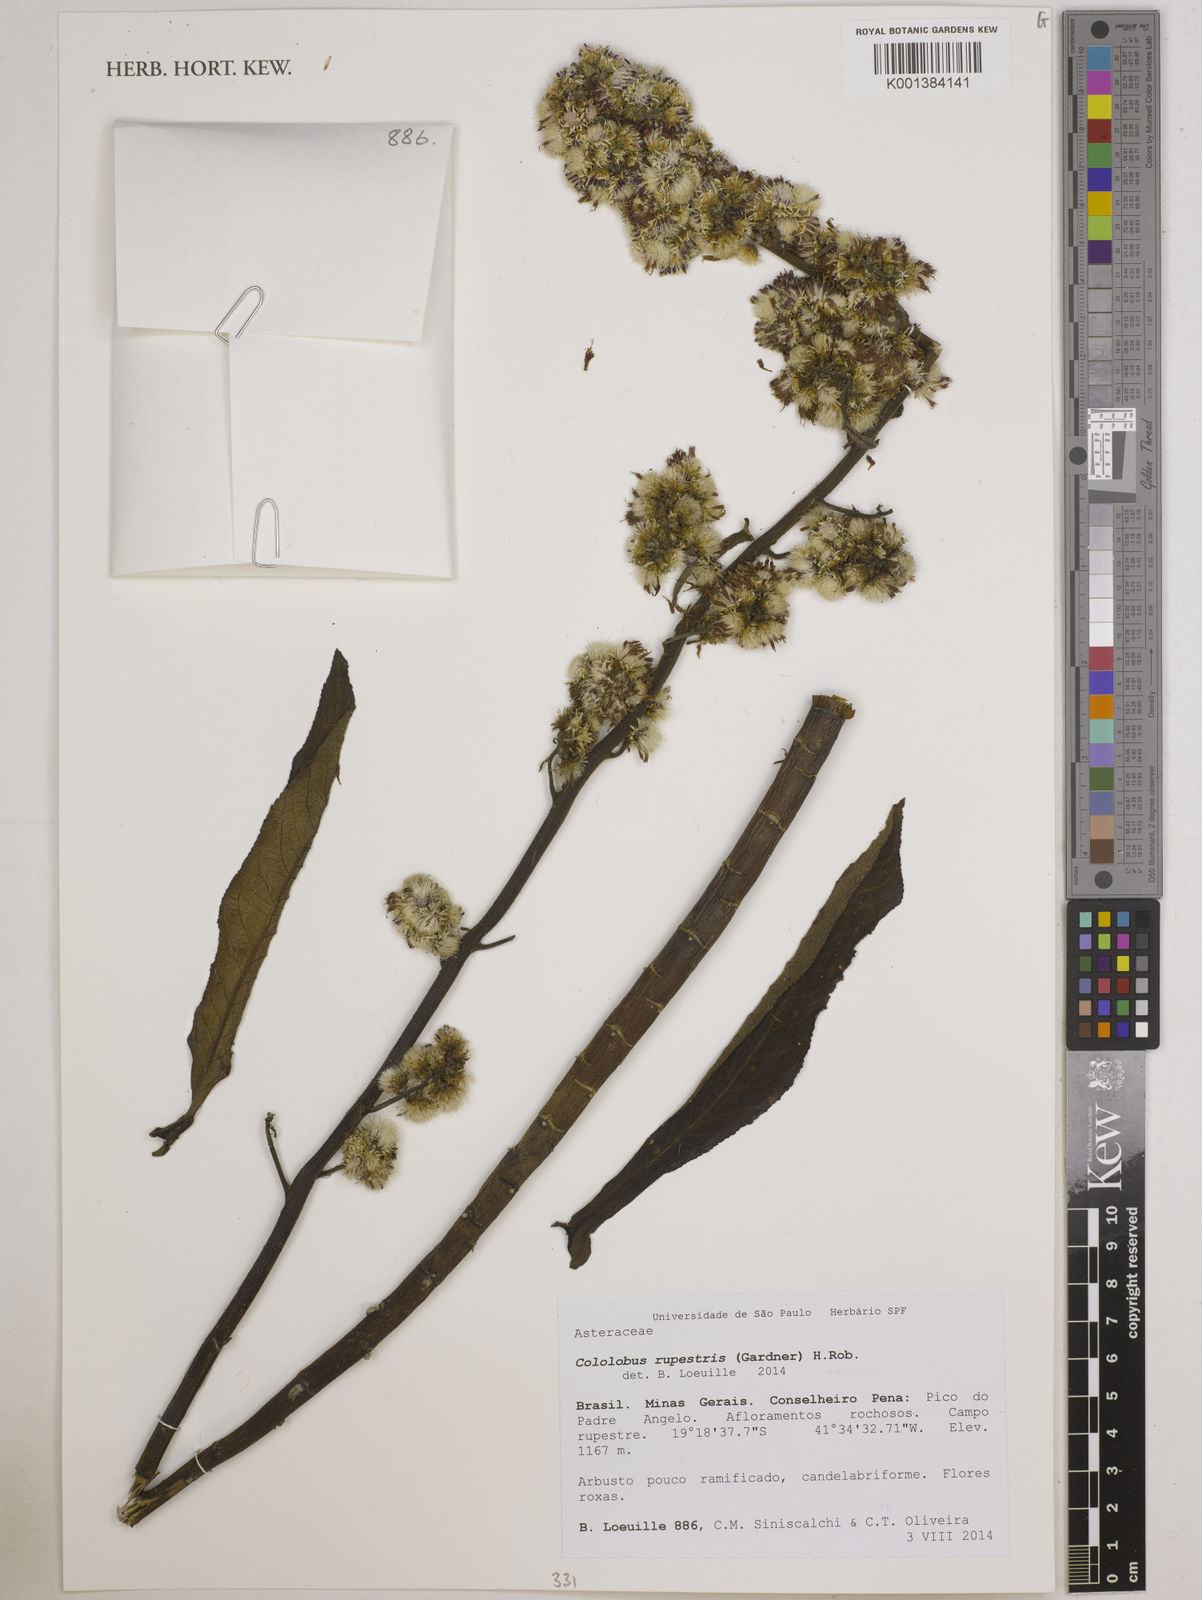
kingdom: Plantae
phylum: Tracheophyta
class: Magnoliopsida
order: Asterales
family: Asteraceae
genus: Cololobus
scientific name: Cololobus rupestris
